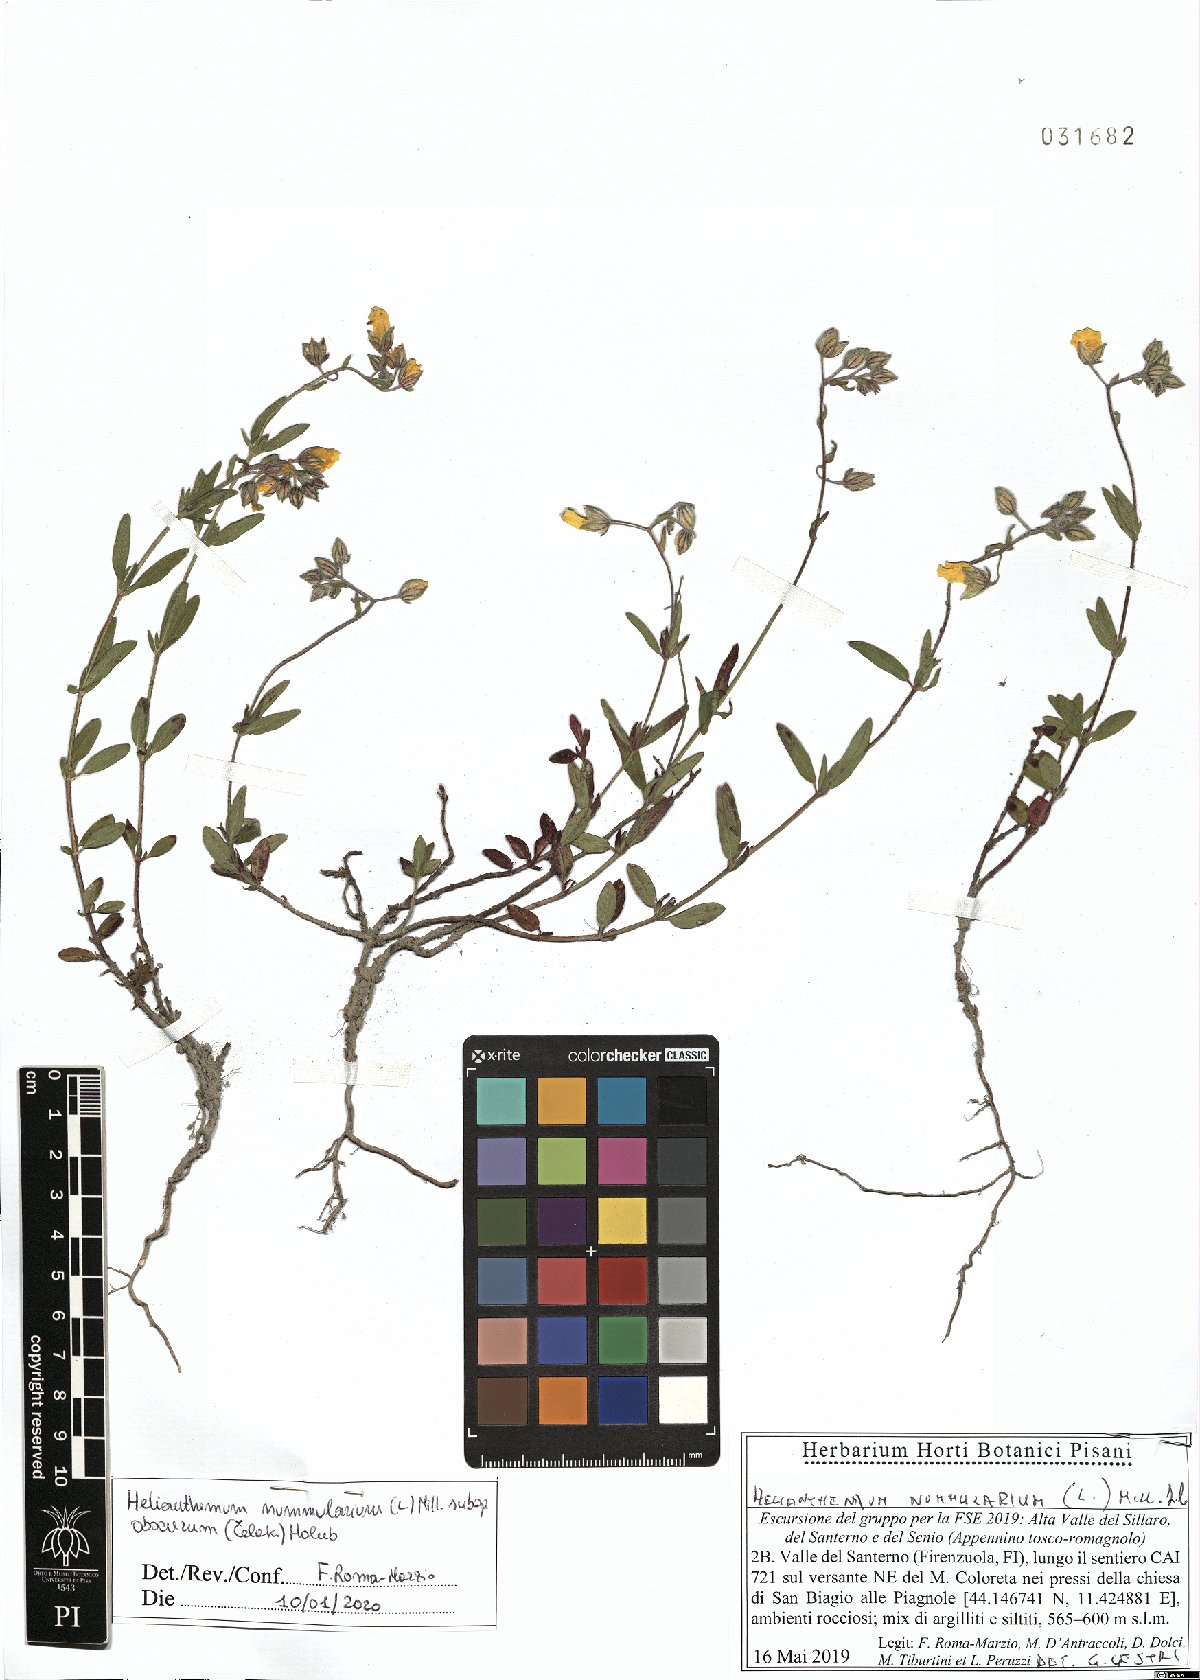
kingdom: Plantae
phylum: Tracheophyta
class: Magnoliopsida
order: Malvales
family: Cistaceae
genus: Helianthemum
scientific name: Helianthemum nummularium
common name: Common rock-rose
